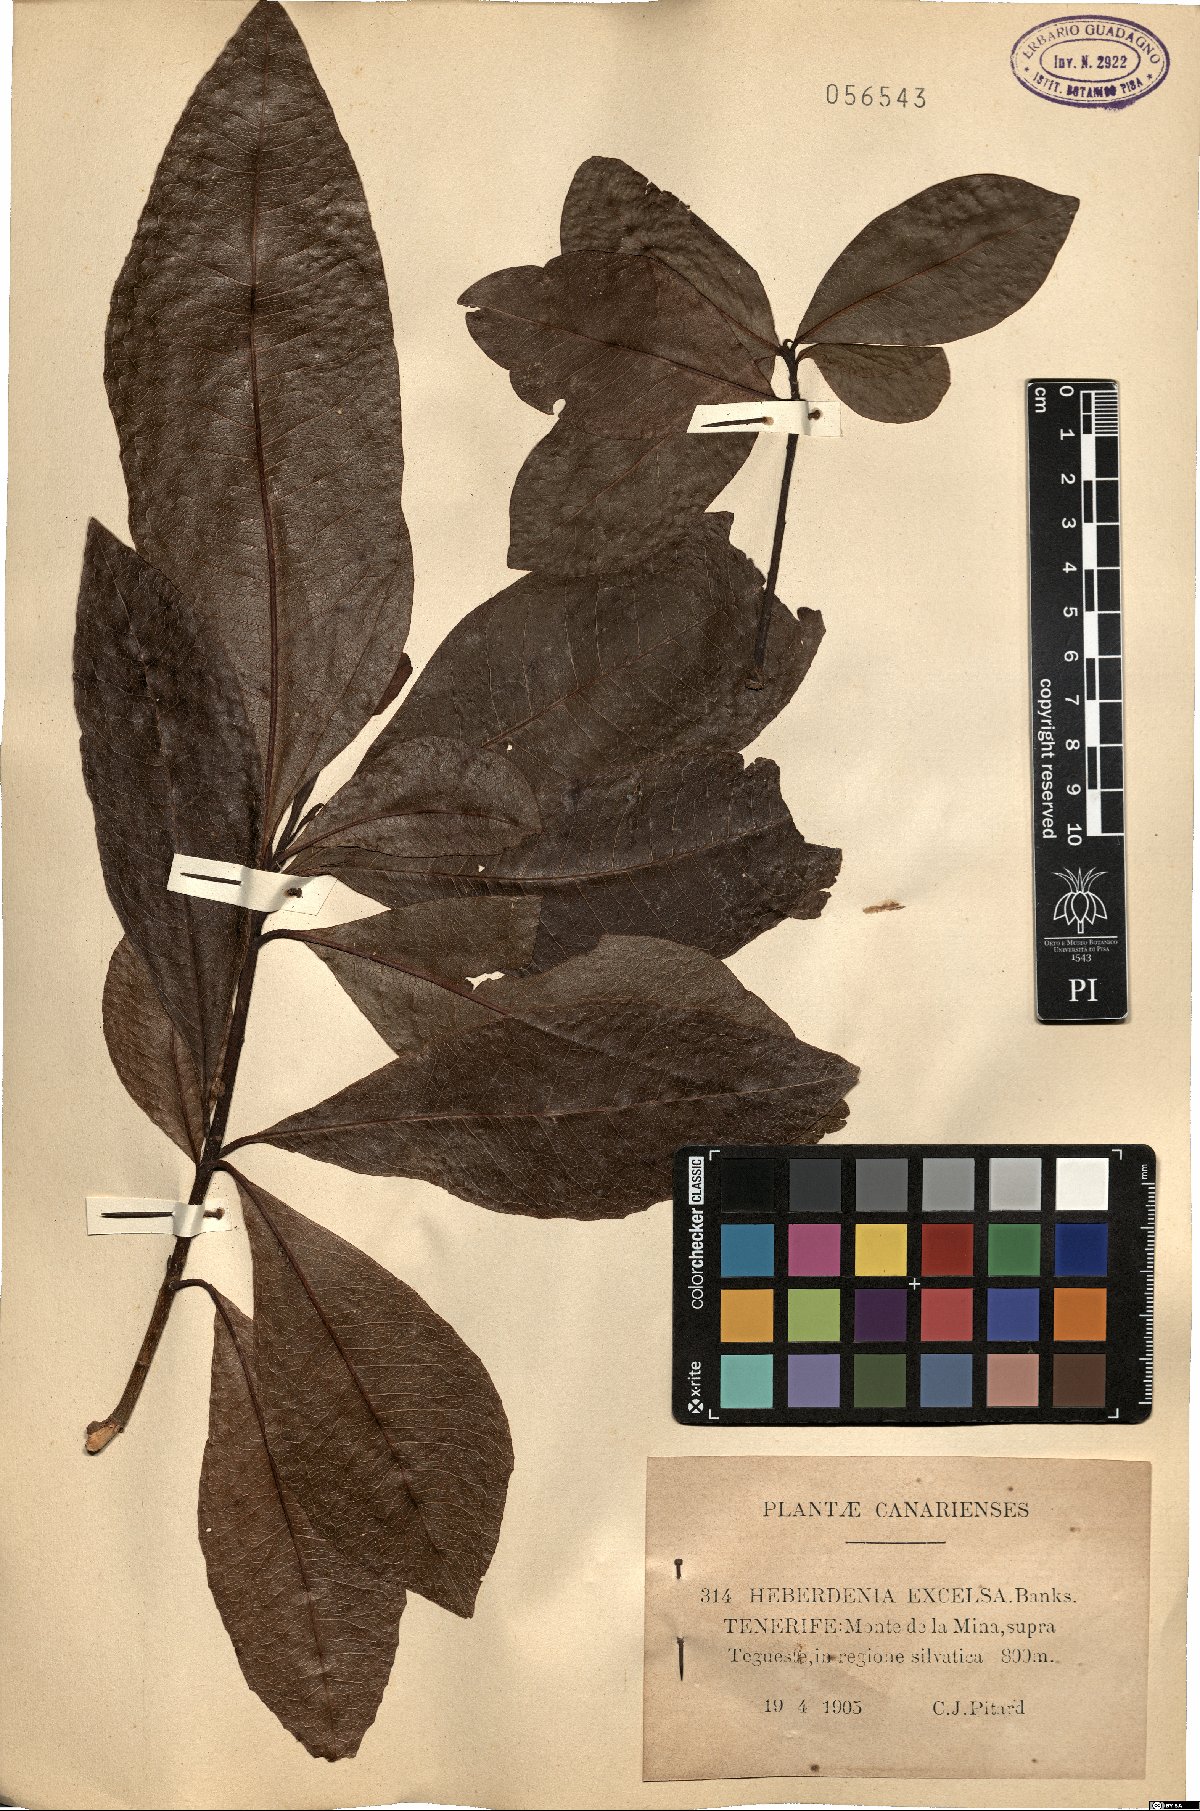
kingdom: Plantae
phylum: Tracheophyta
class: Magnoliopsida
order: Ericales
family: Primulaceae
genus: Heberdenia
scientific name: Heberdenia excelsa
